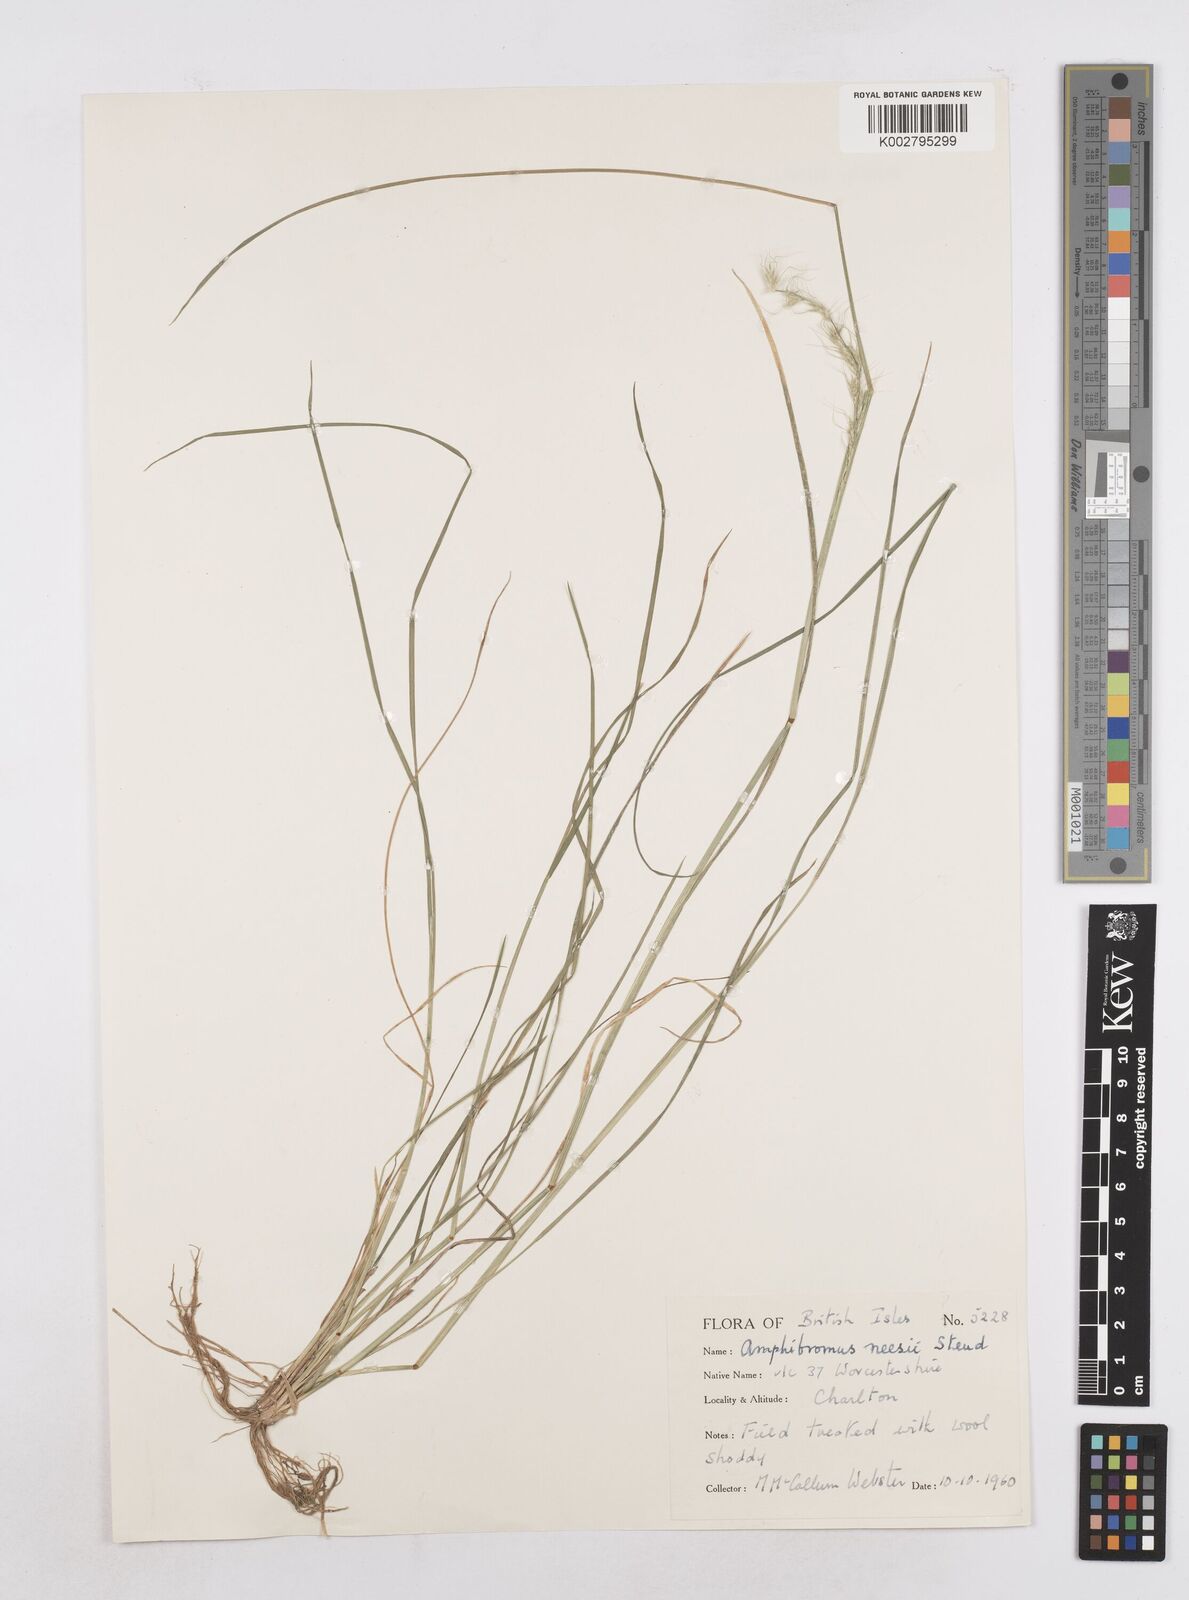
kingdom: Plantae
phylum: Tracheophyta
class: Liliopsida
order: Poales
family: Poaceae
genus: Amphibromus
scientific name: Amphibromus neesii
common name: Australian wallaby grass
